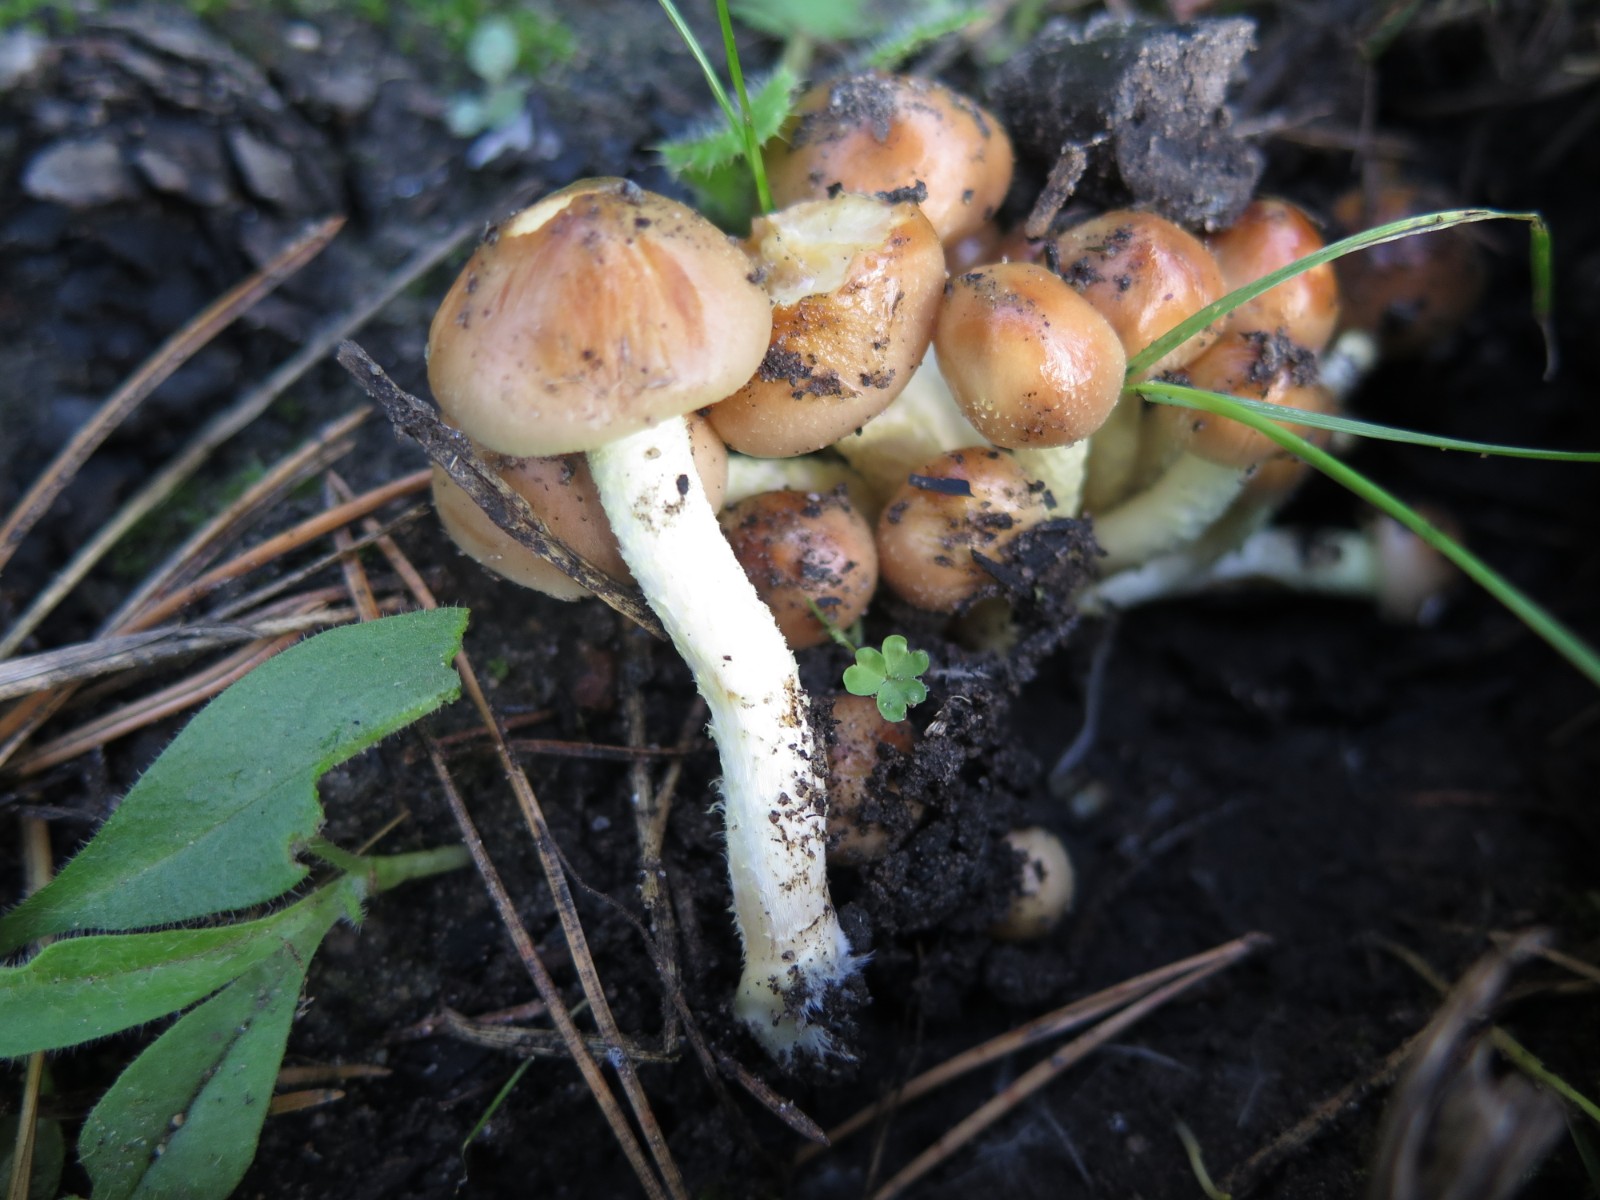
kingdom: Fungi
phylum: Basidiomycota
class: Agaricomycetes
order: Agaricales
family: Strophariaceae
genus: Pholiota
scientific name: Pholiota carbonaria
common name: kul-skælhat
